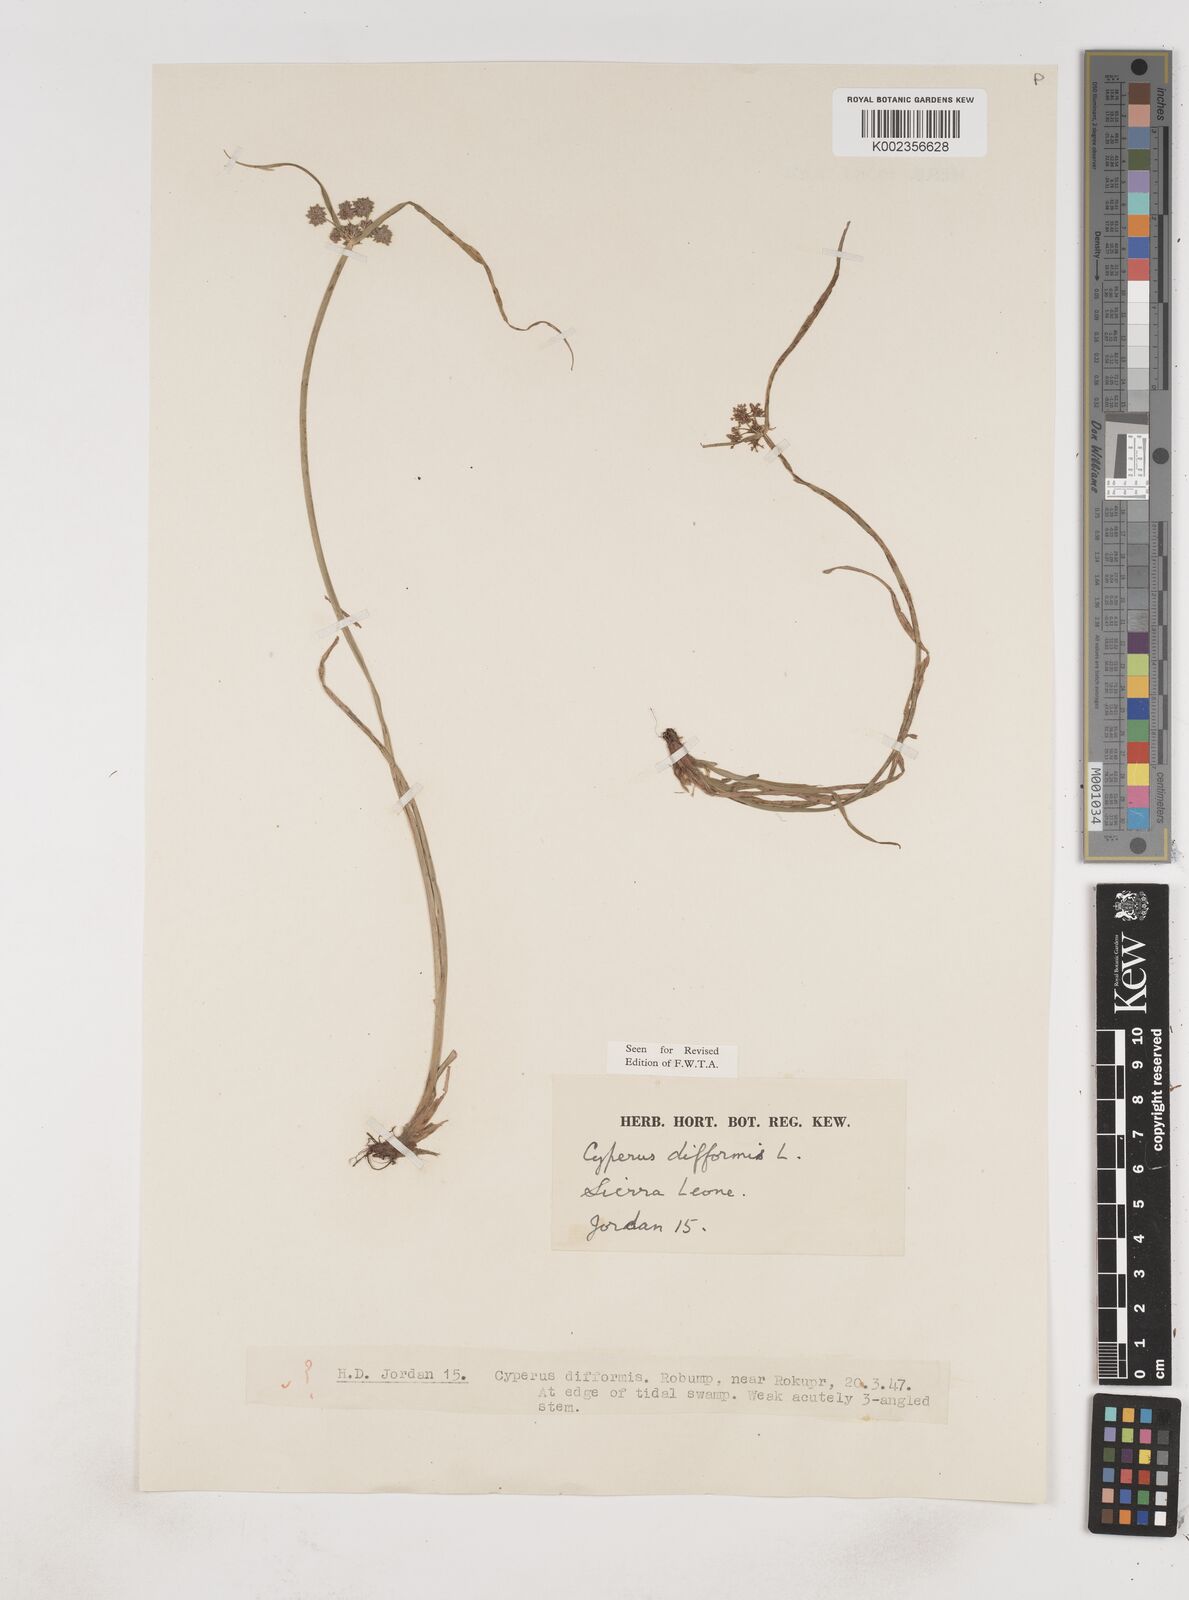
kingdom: Plantae
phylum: Tracheophyta
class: Liliopsida
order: Poales
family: Cyperaceae
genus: Cyperus
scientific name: Cyperus difformis
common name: Variable flatsedge
